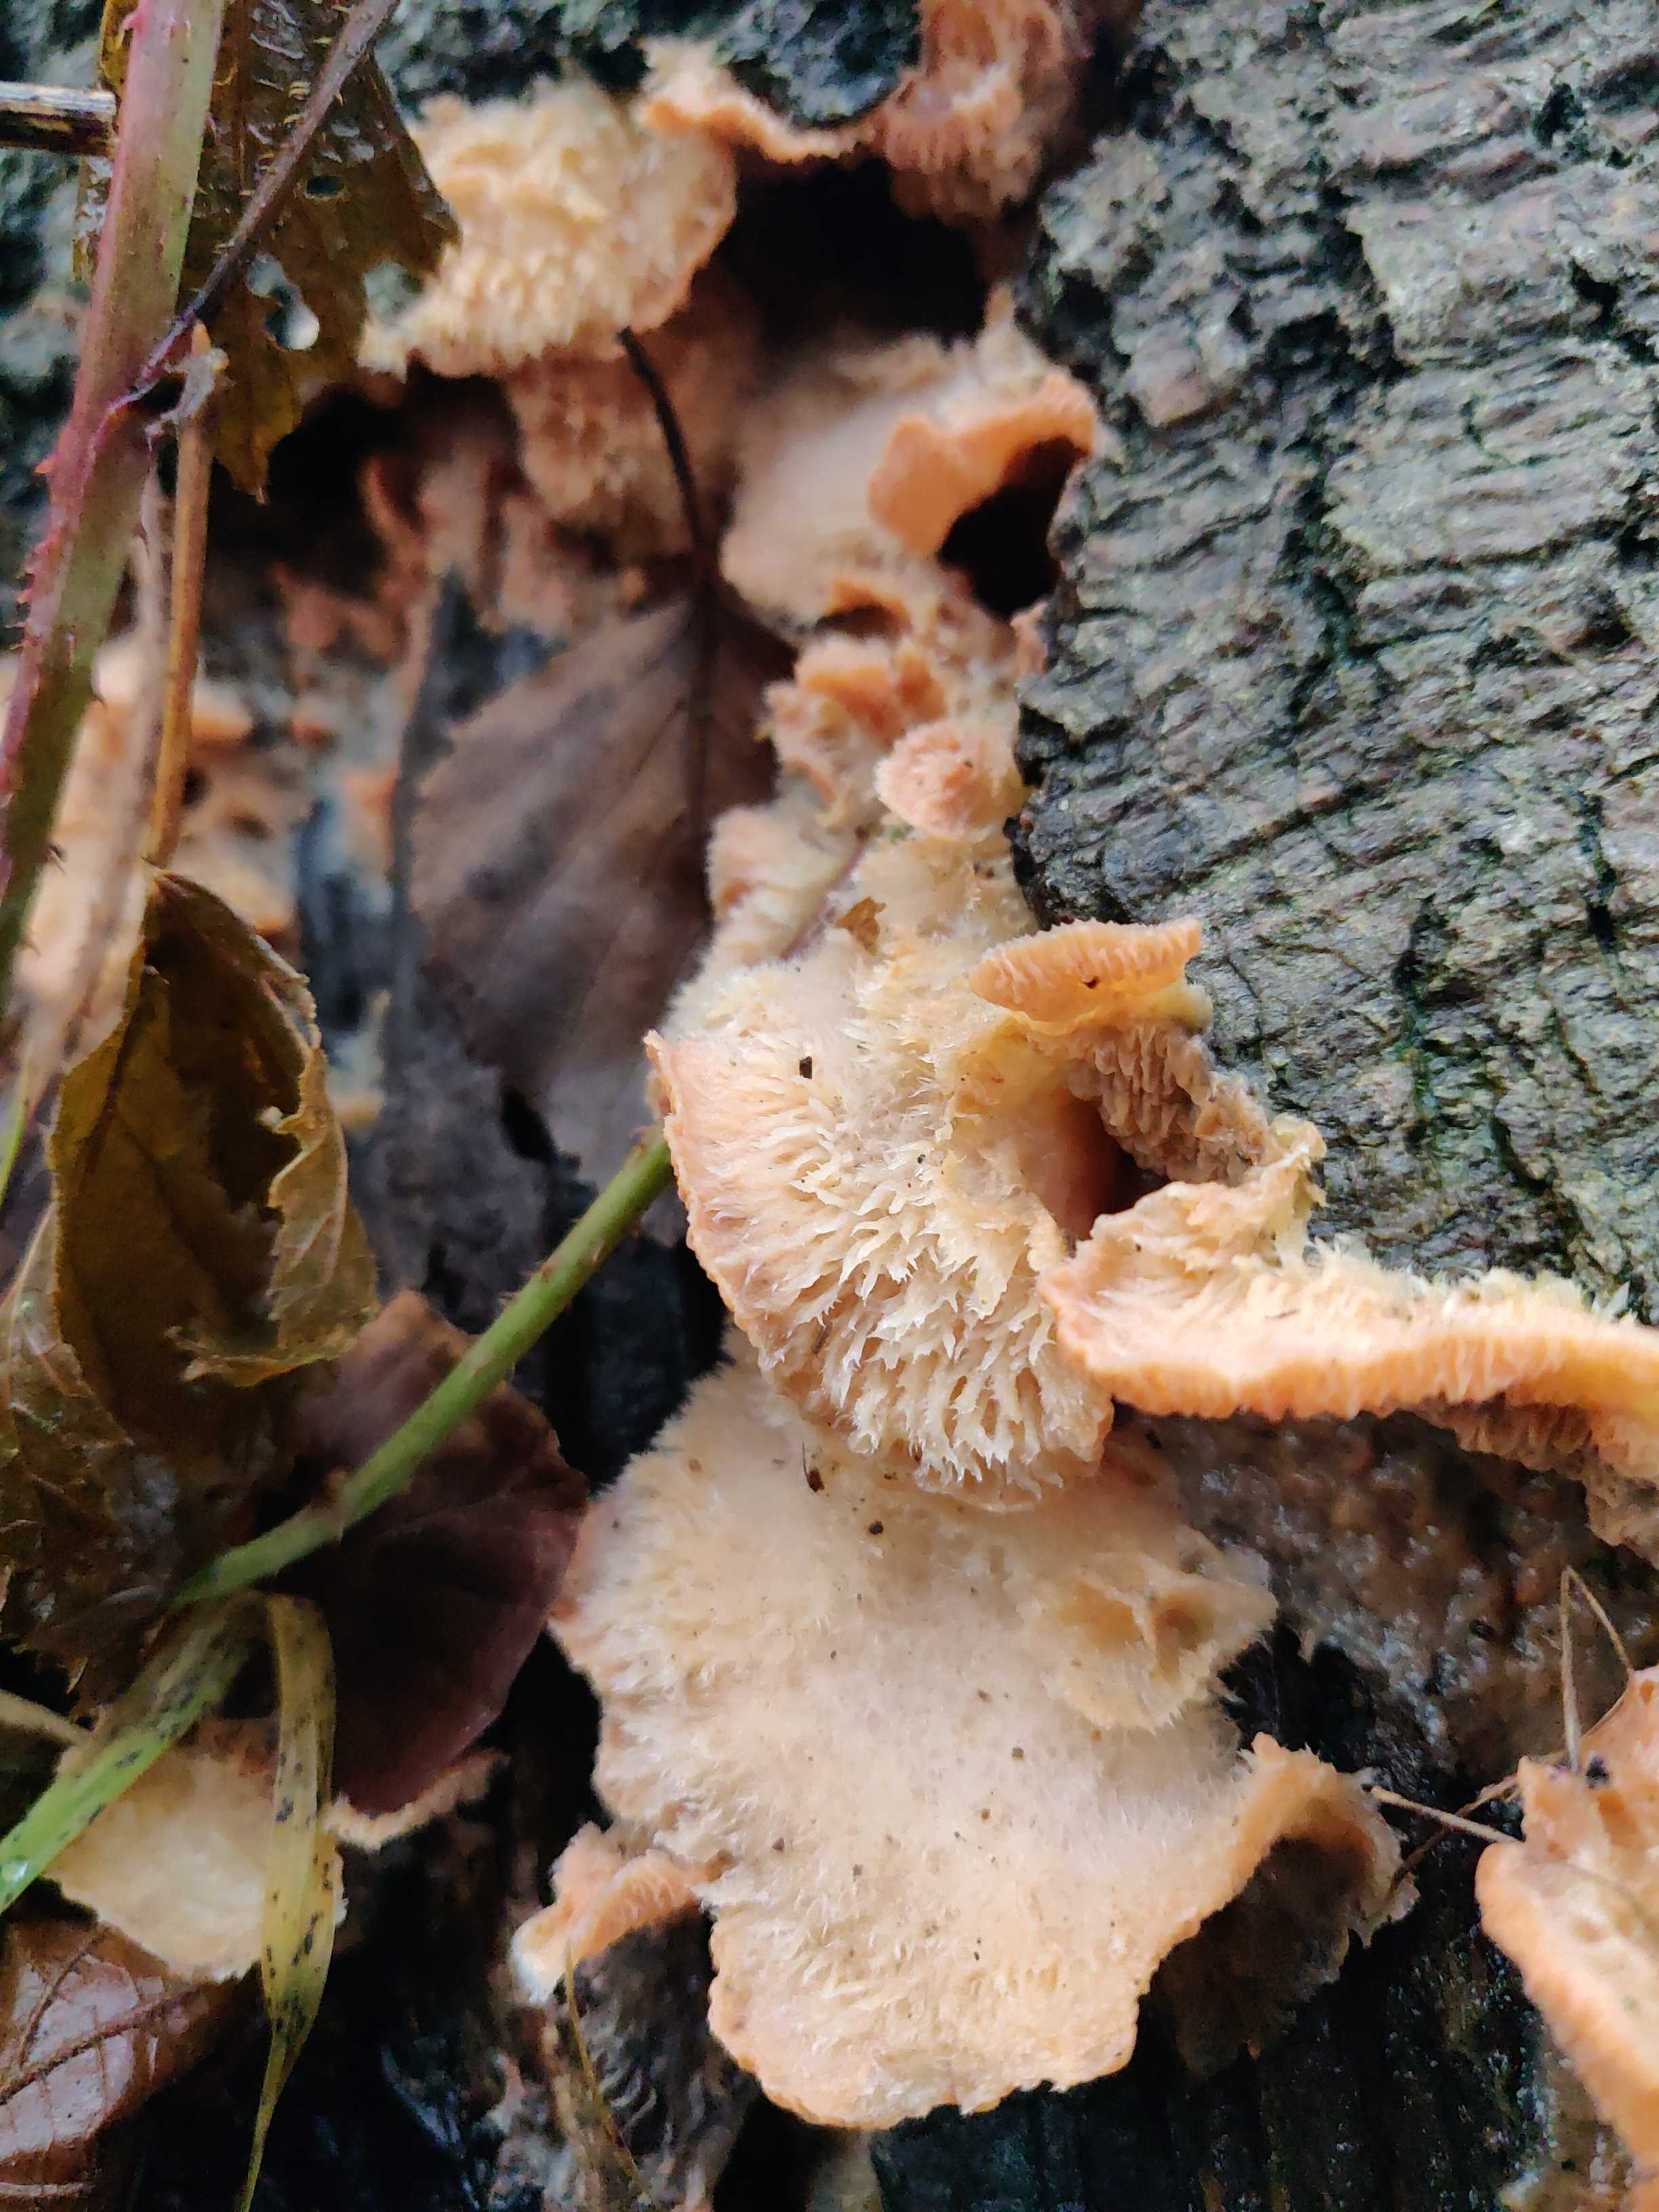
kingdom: Fungi
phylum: Basidiomycota
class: Agaricomycetes
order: Polyporales
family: Meruliaceae
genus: Phlebia
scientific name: Phlebia tremellosa
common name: bævrende åresvamp
